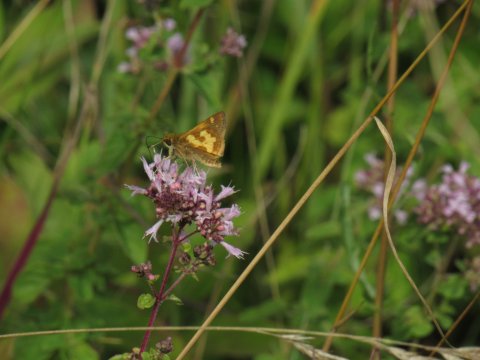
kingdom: Animalia
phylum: Arthropoda
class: Insecta
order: Lepidoptera
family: Hesperiidae
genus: Polites
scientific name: Polites coras
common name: Peck's Skipper
